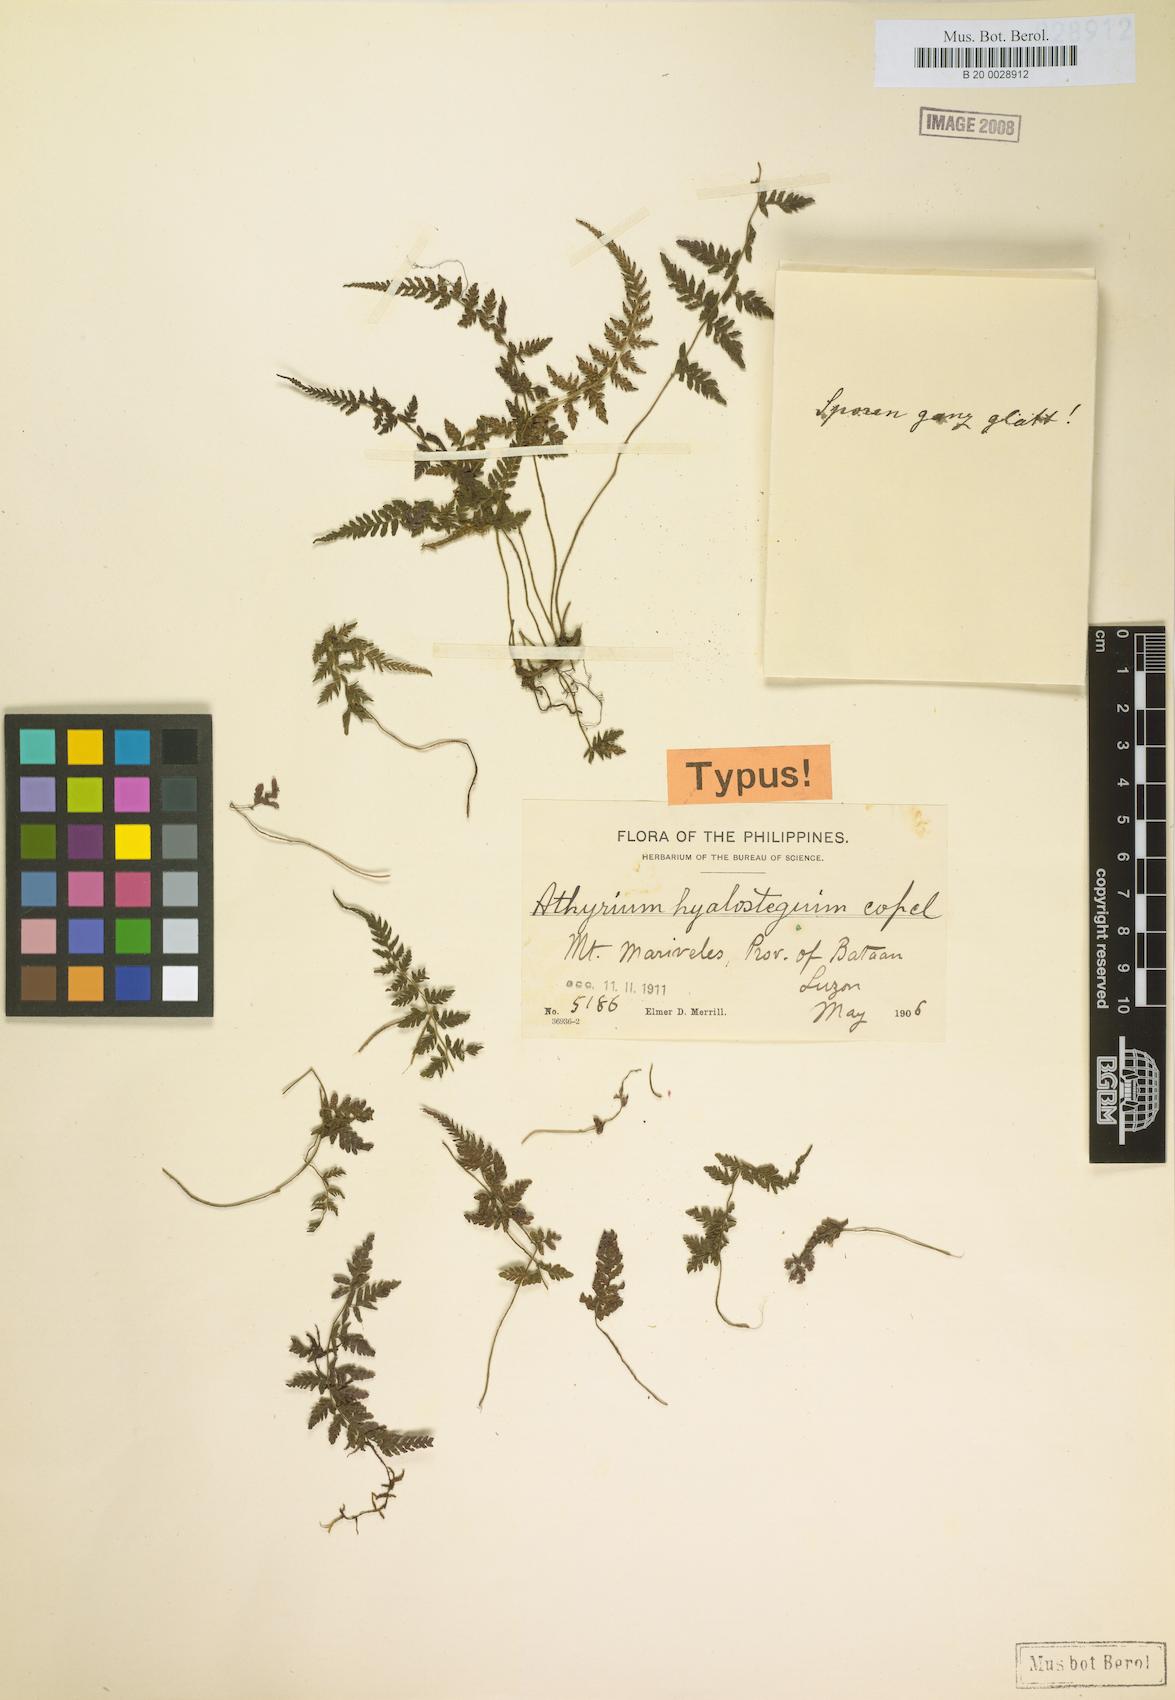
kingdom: Plantae
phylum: Tracheophyta
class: Polypodiopsida
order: Polypodiales
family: Thelypteridaceae
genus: Amauropelta
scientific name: Amauropelta grammitoides
